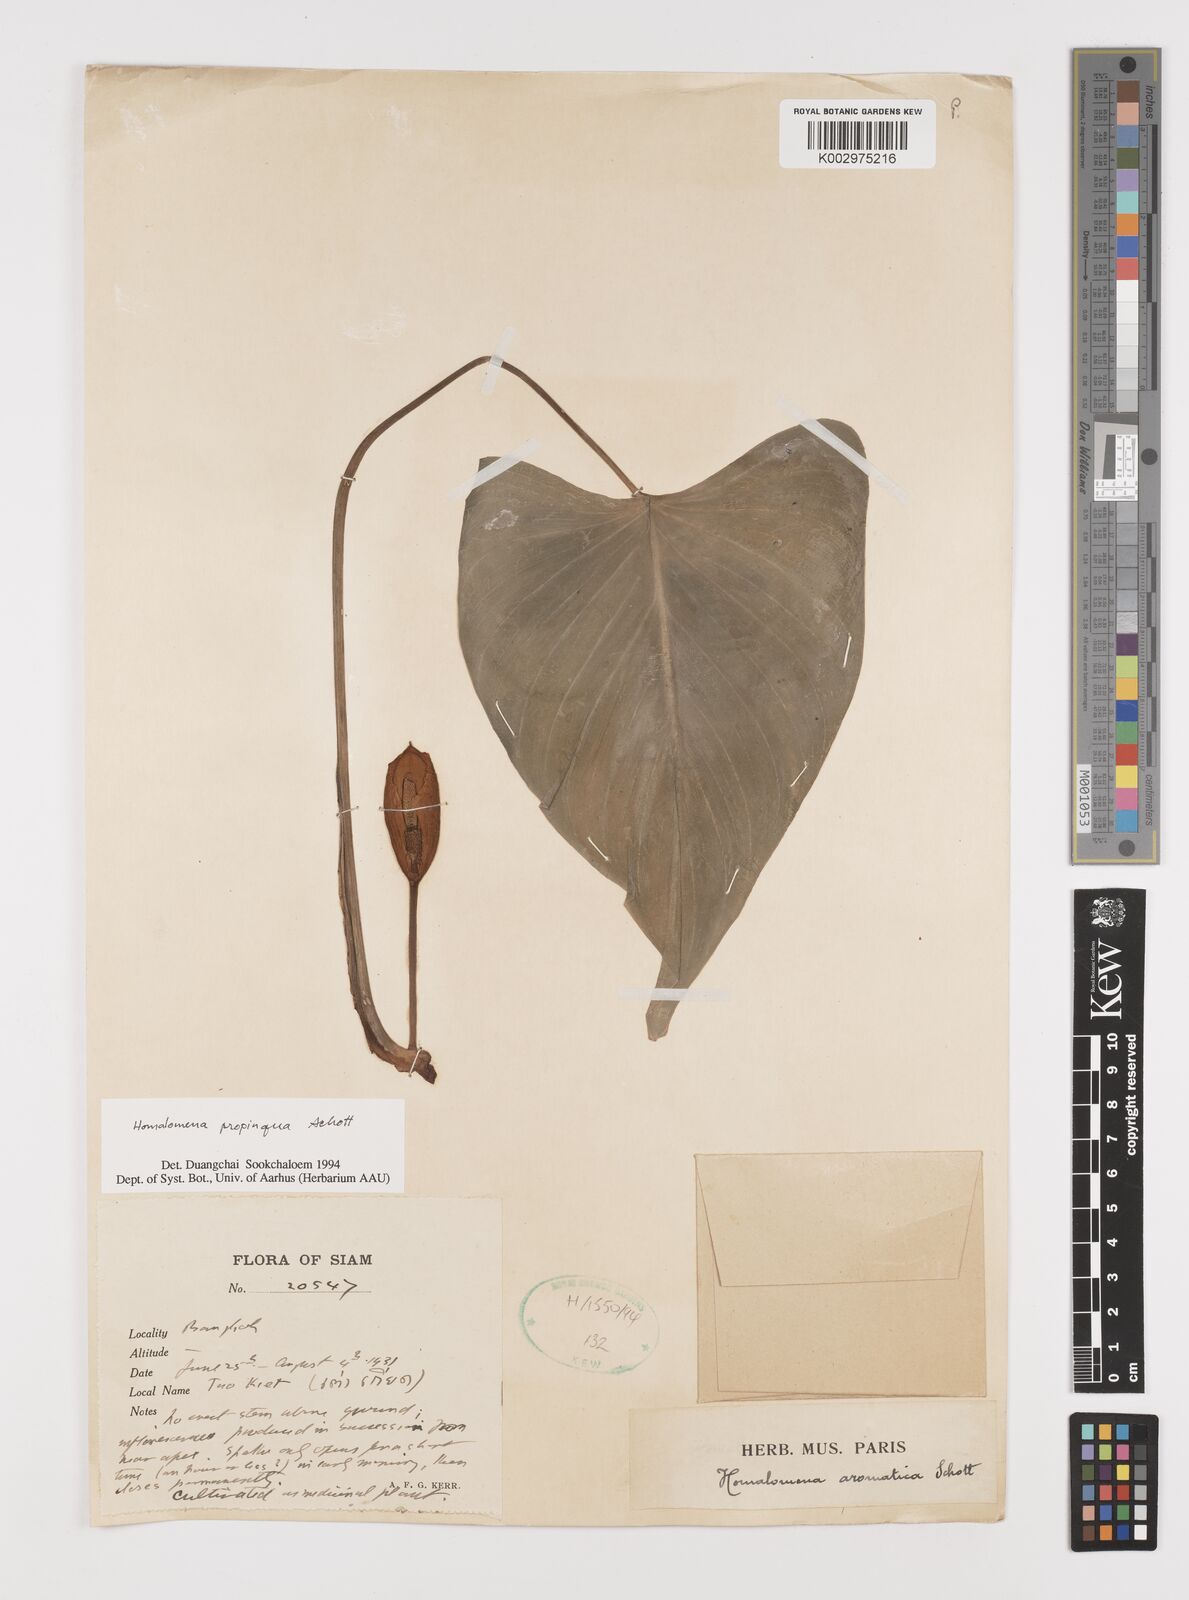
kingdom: Plantae
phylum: Tracheophyta
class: Liliopsida
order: Alismatales
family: Araceae
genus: Homalomena
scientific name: Homalomena aromatica
